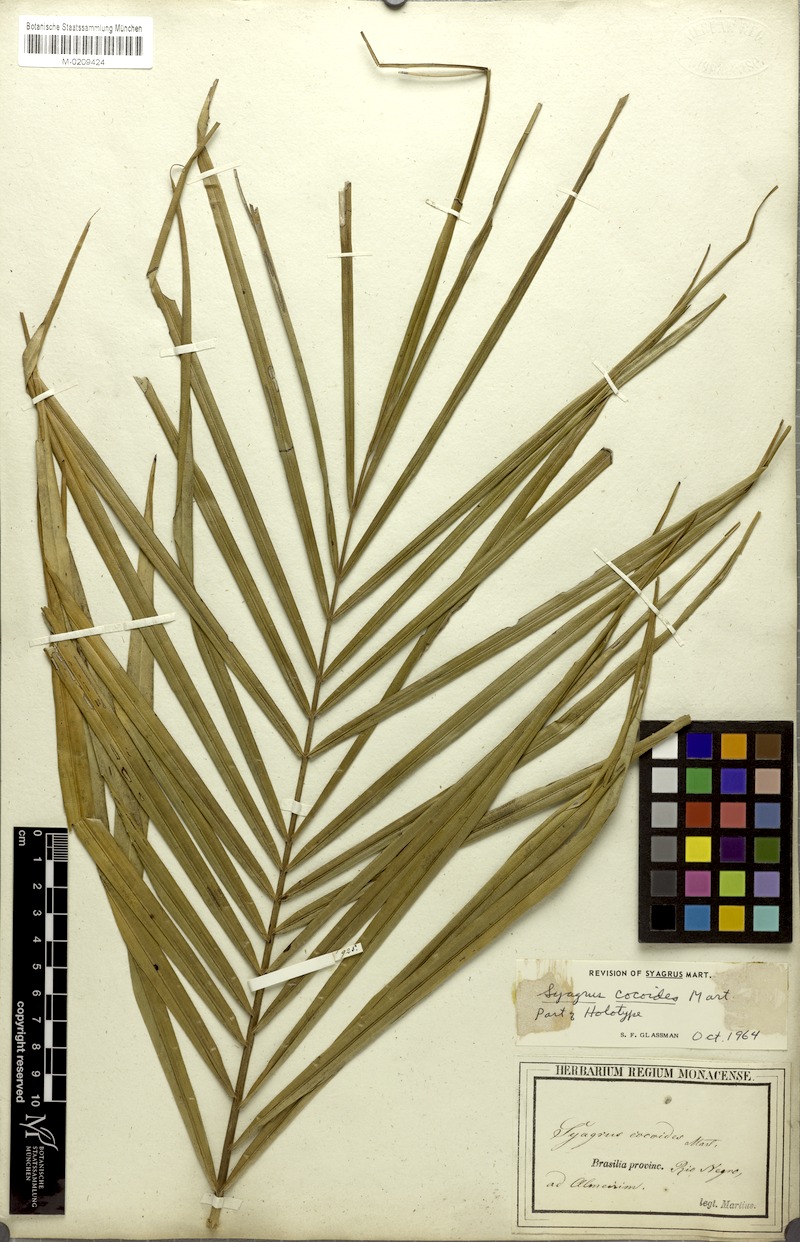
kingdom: Plantae
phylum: Tracheophyta
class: Liliopsida
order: Arecales
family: Arecaceae
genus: Syagrus
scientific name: Syagrus cocoides
